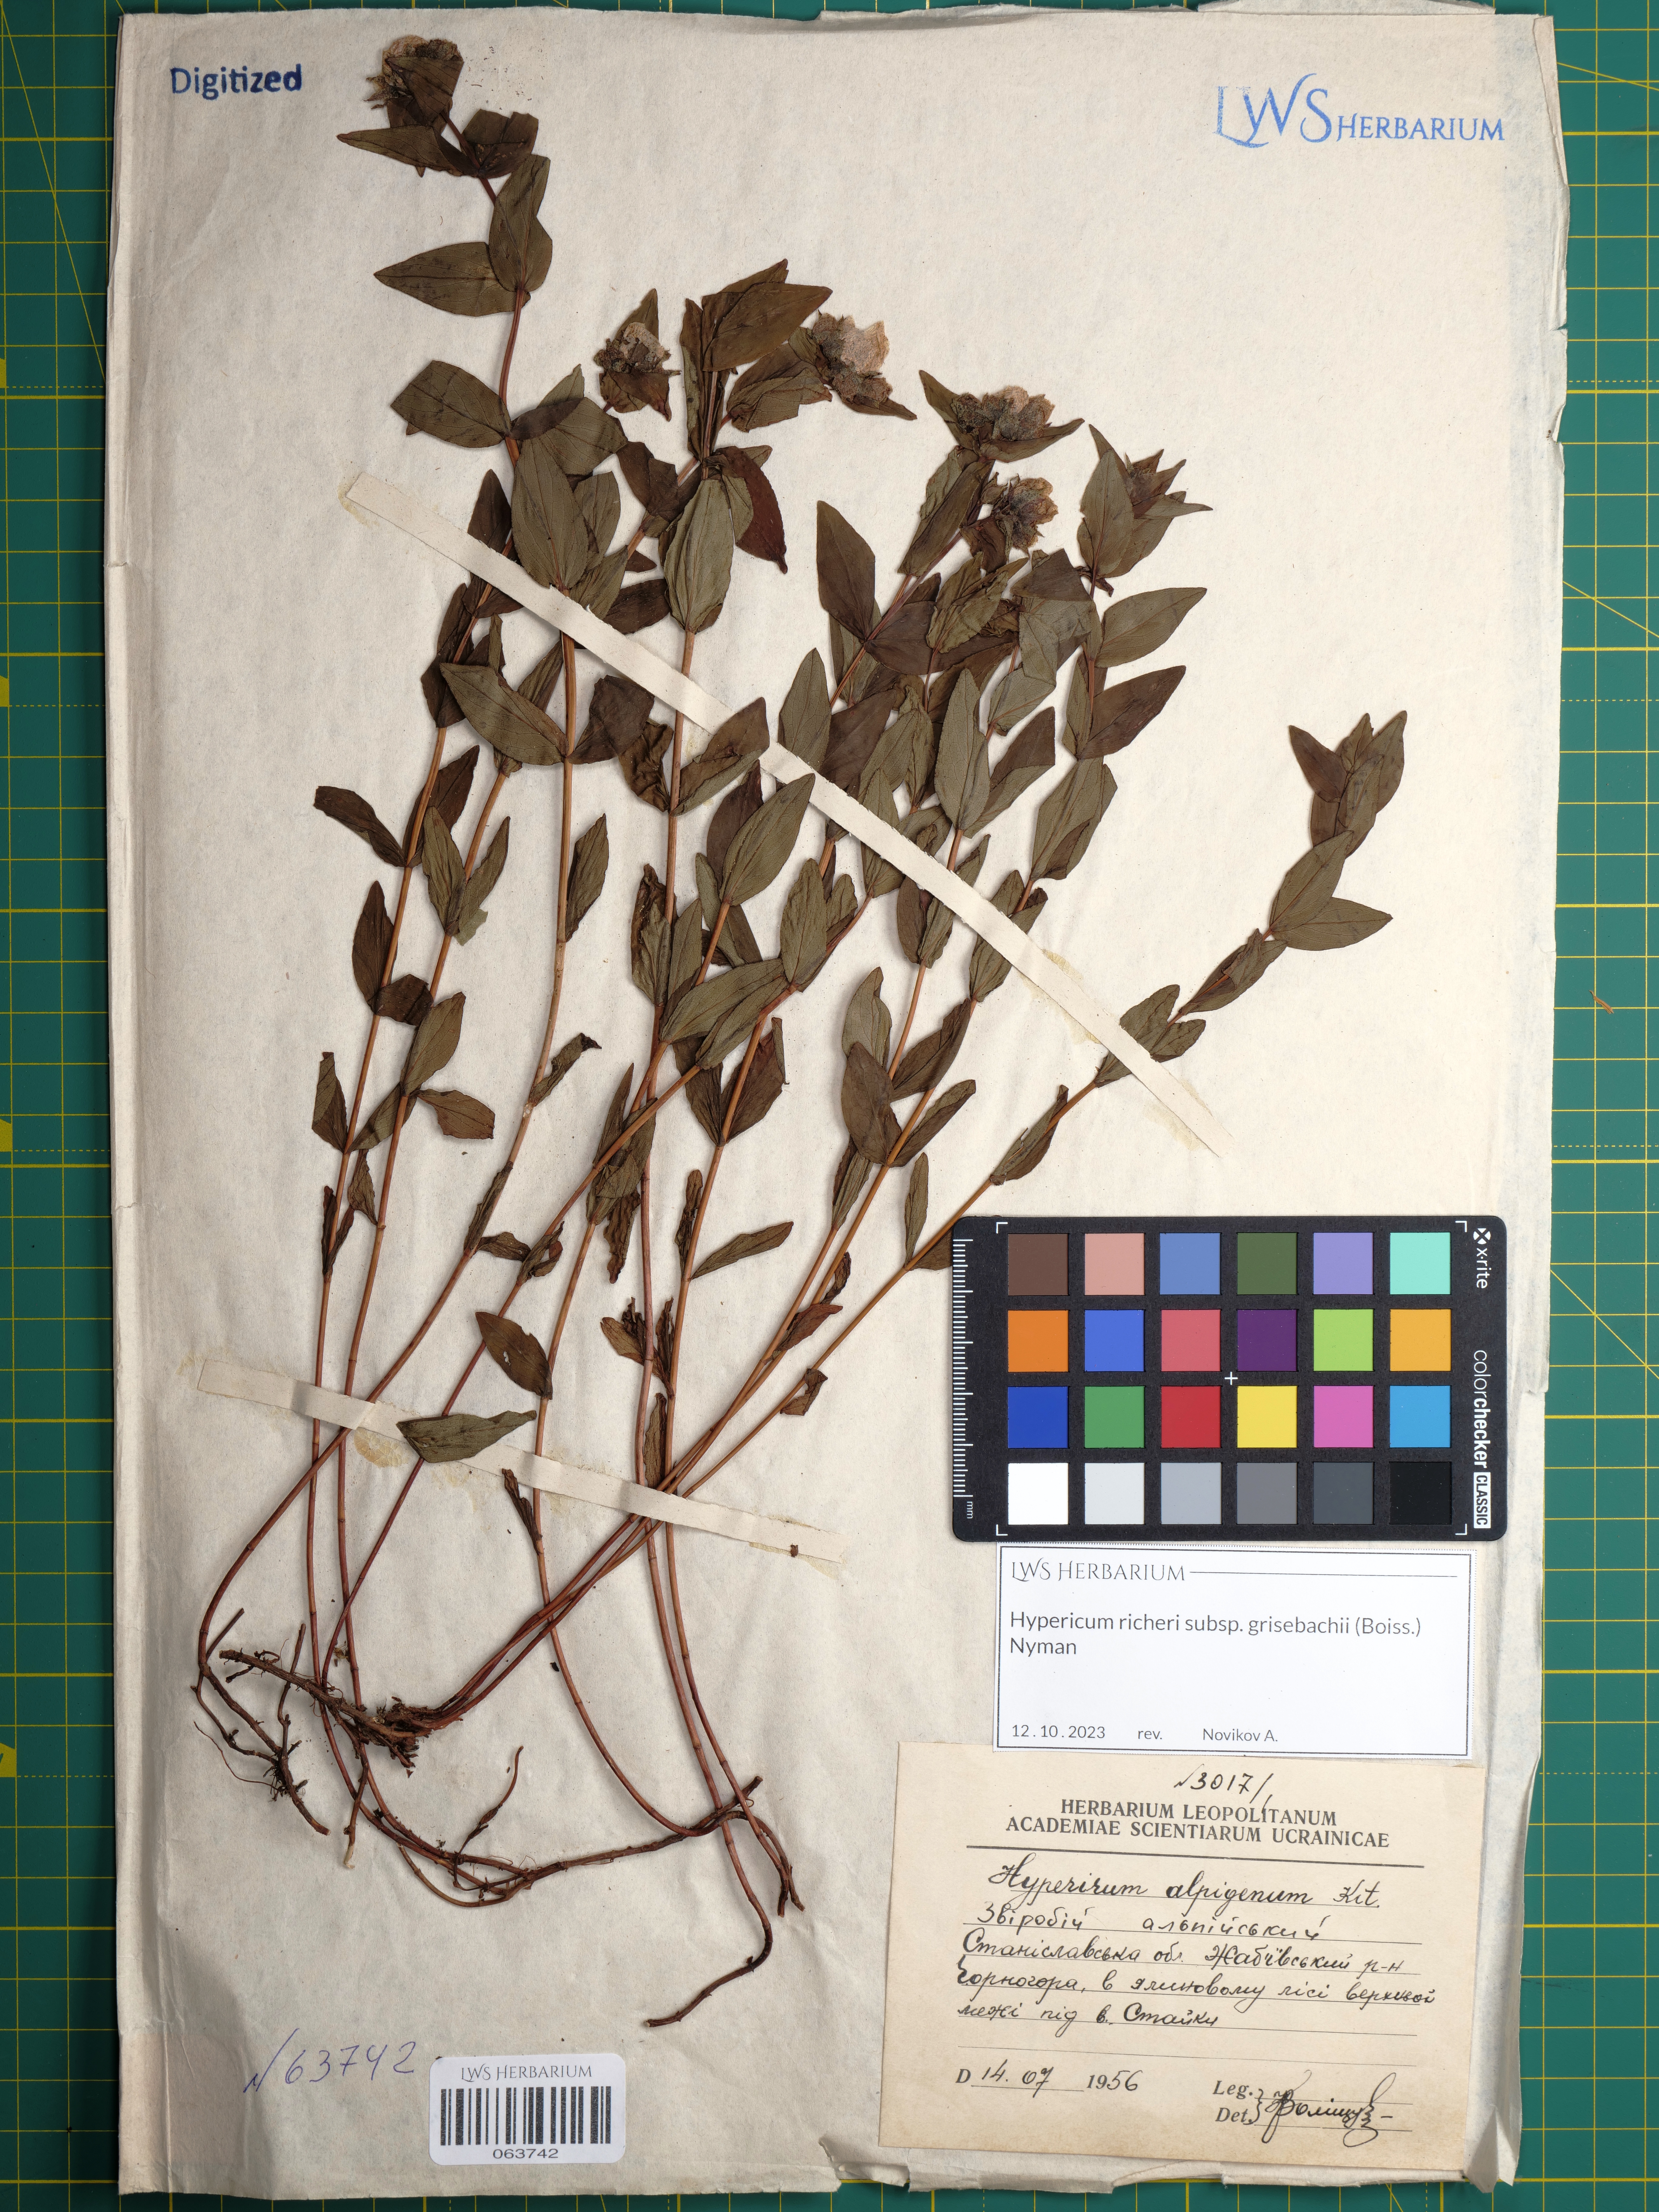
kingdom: Plantae
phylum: Tracheophyta
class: Magnoliopsida
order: Malpighiales
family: Hypericaceae
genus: Hypericum
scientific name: Hypericum richeri
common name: Alpine st john's-wort
